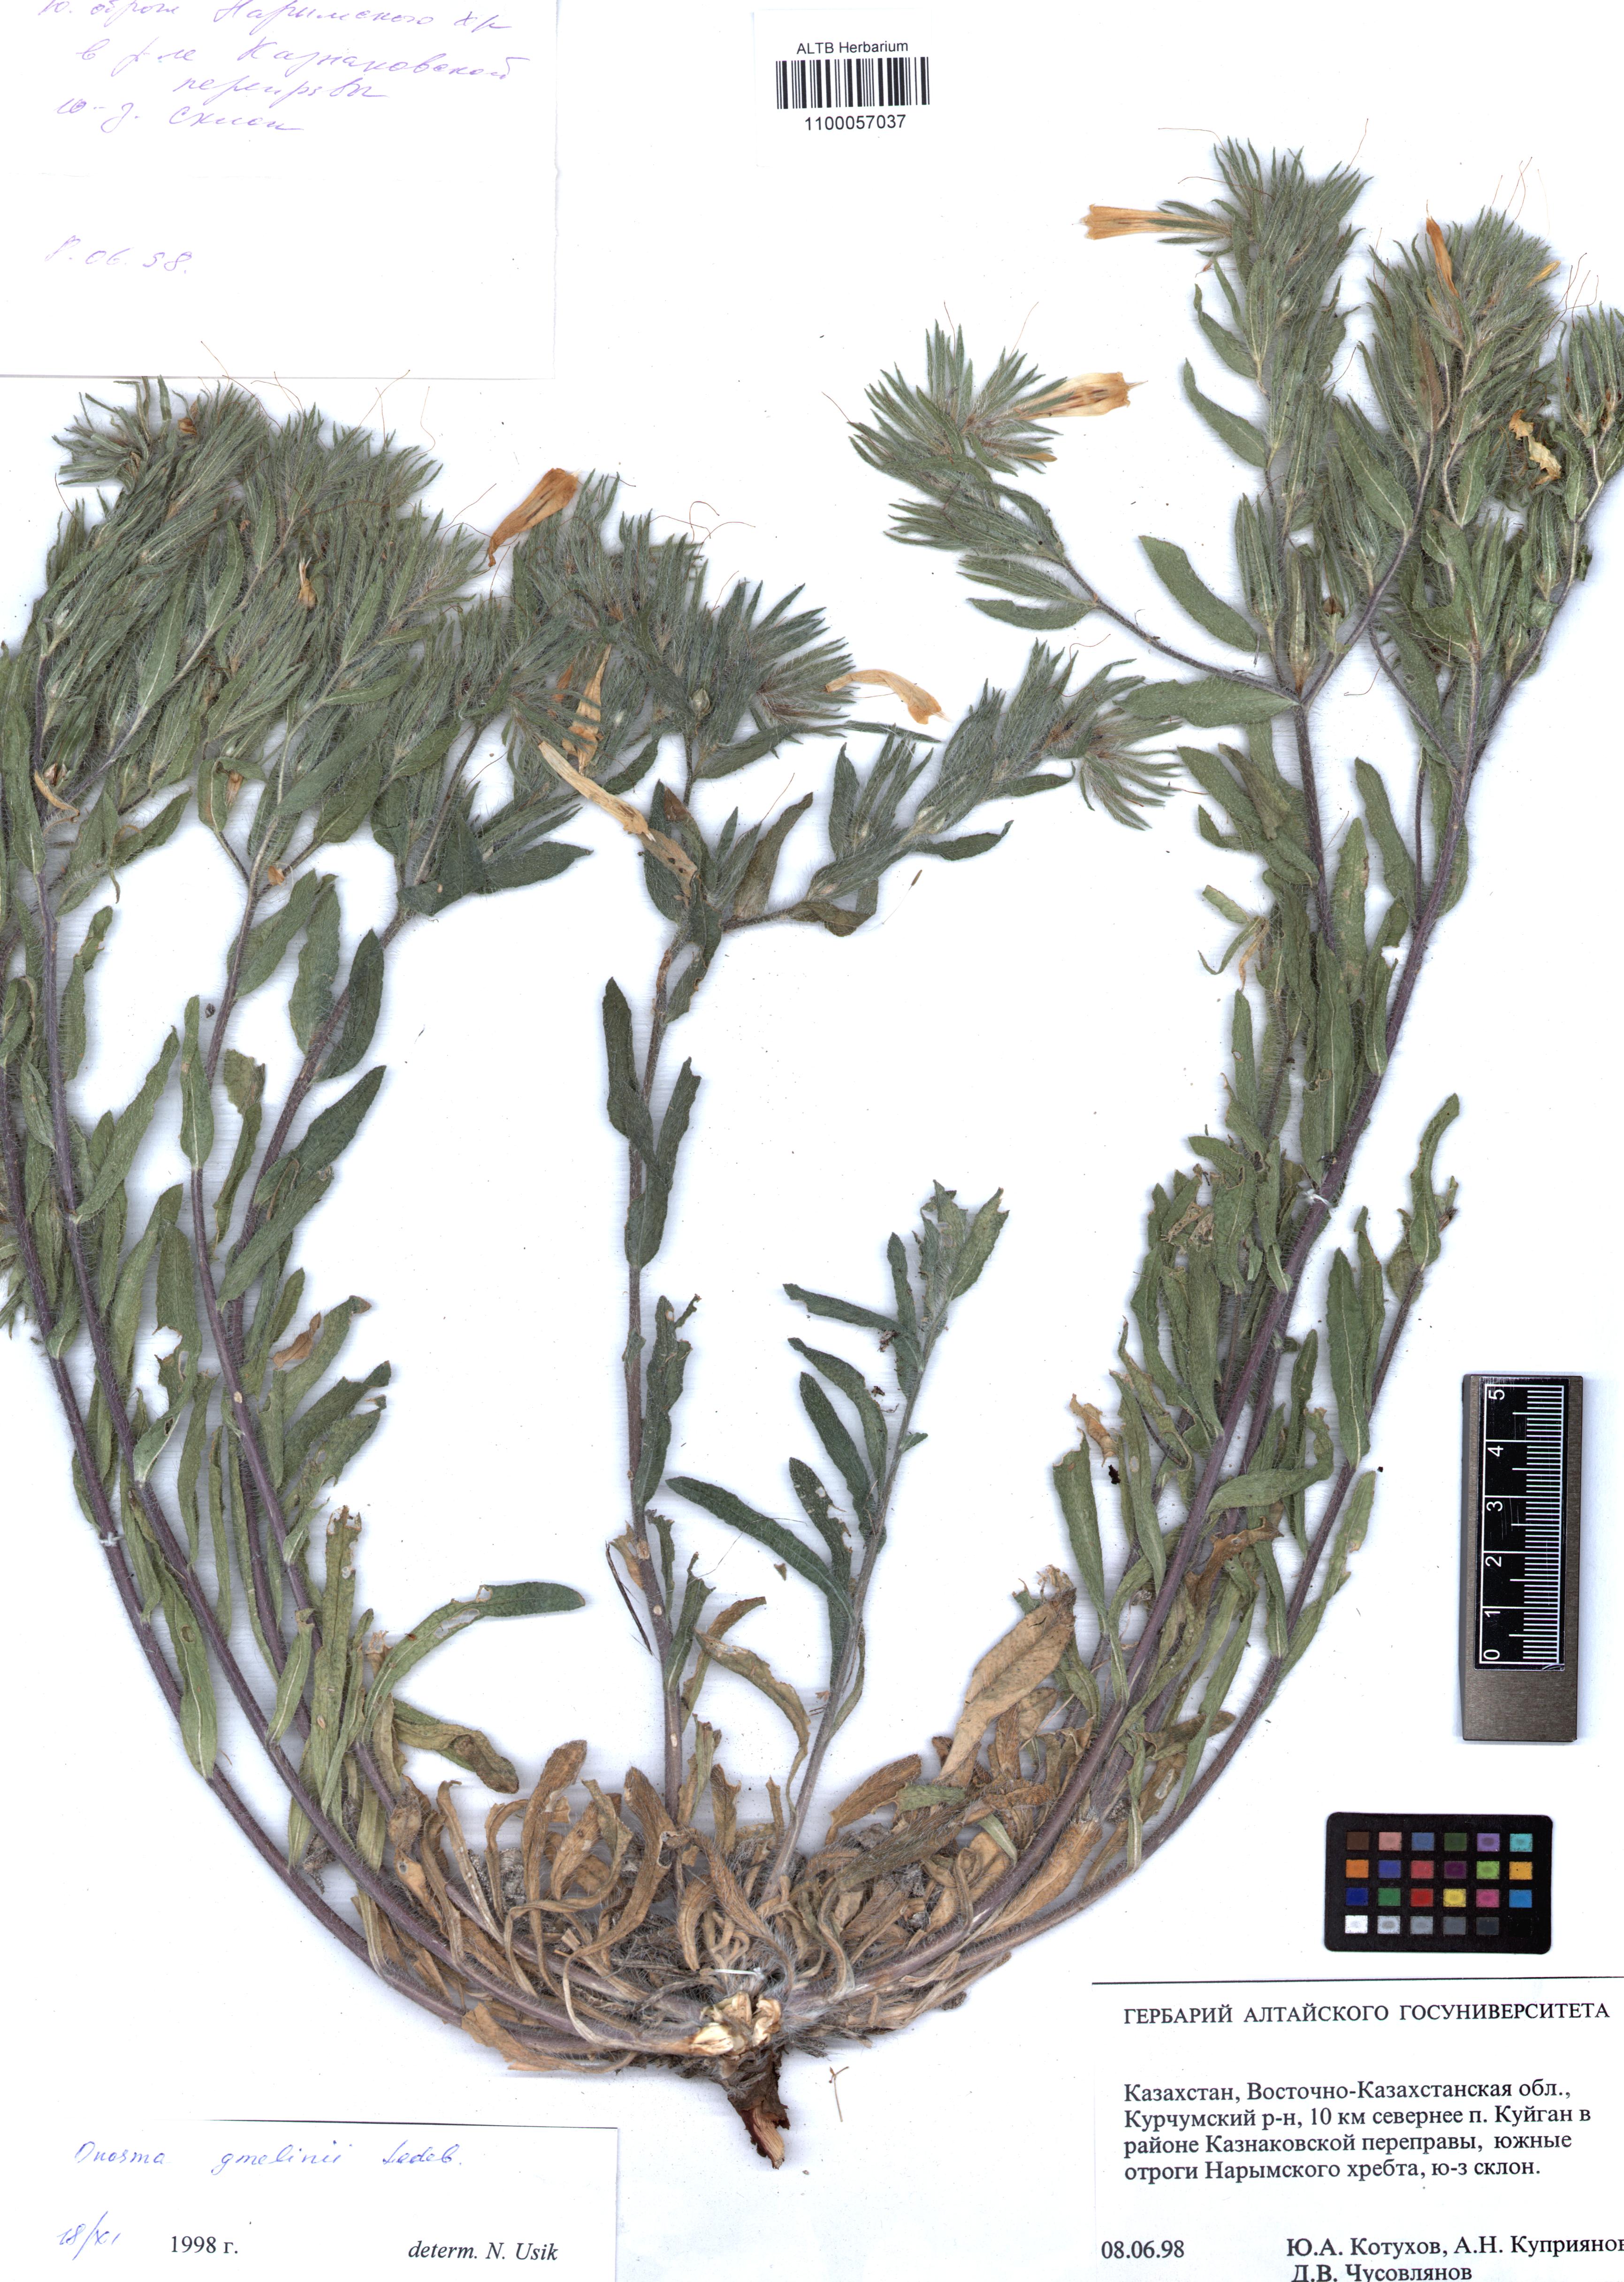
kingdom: Plantae
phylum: Tracheophyta
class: Magnoliopsida
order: Boraginales
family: Boraginaceae
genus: Onosma
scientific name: Onosma gmelinii
